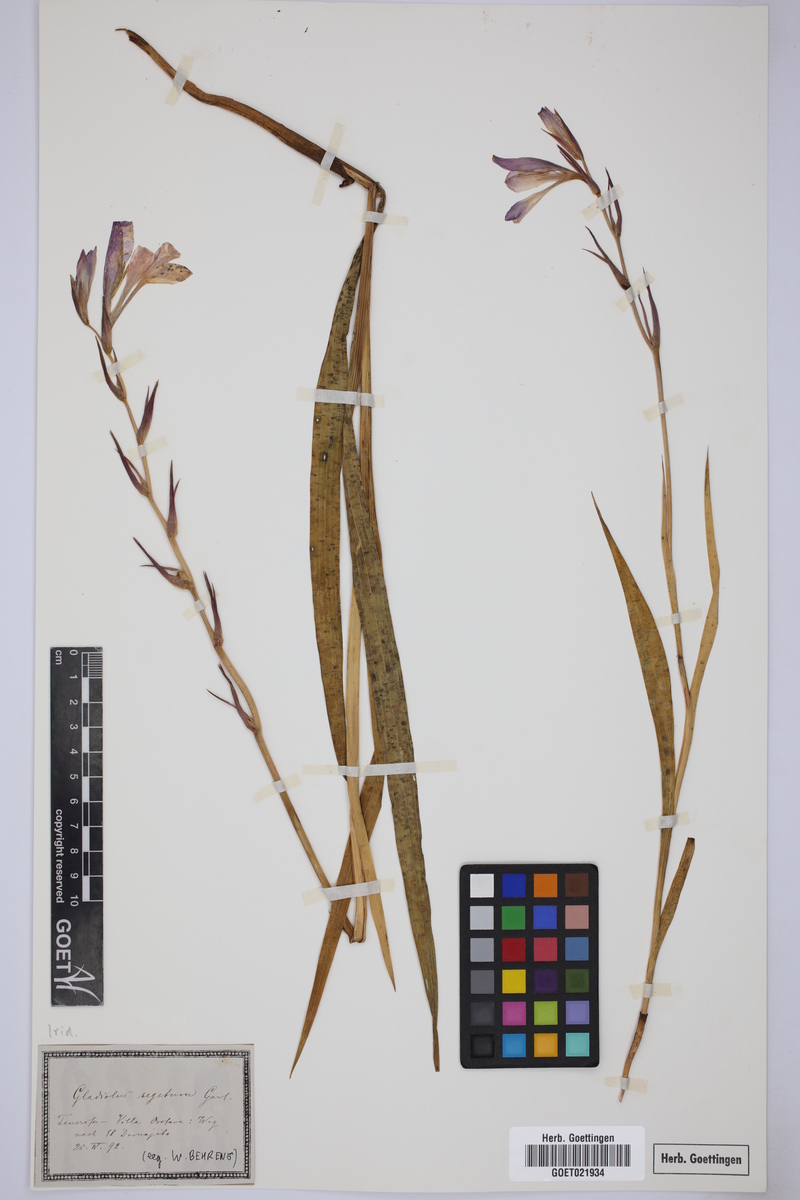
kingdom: Plantae
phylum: Tracheophyta
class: Liliopsida
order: Asparagales
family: Iridaceae
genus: Gladiolus
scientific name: Gladiolus italicus
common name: Field gladiolus
